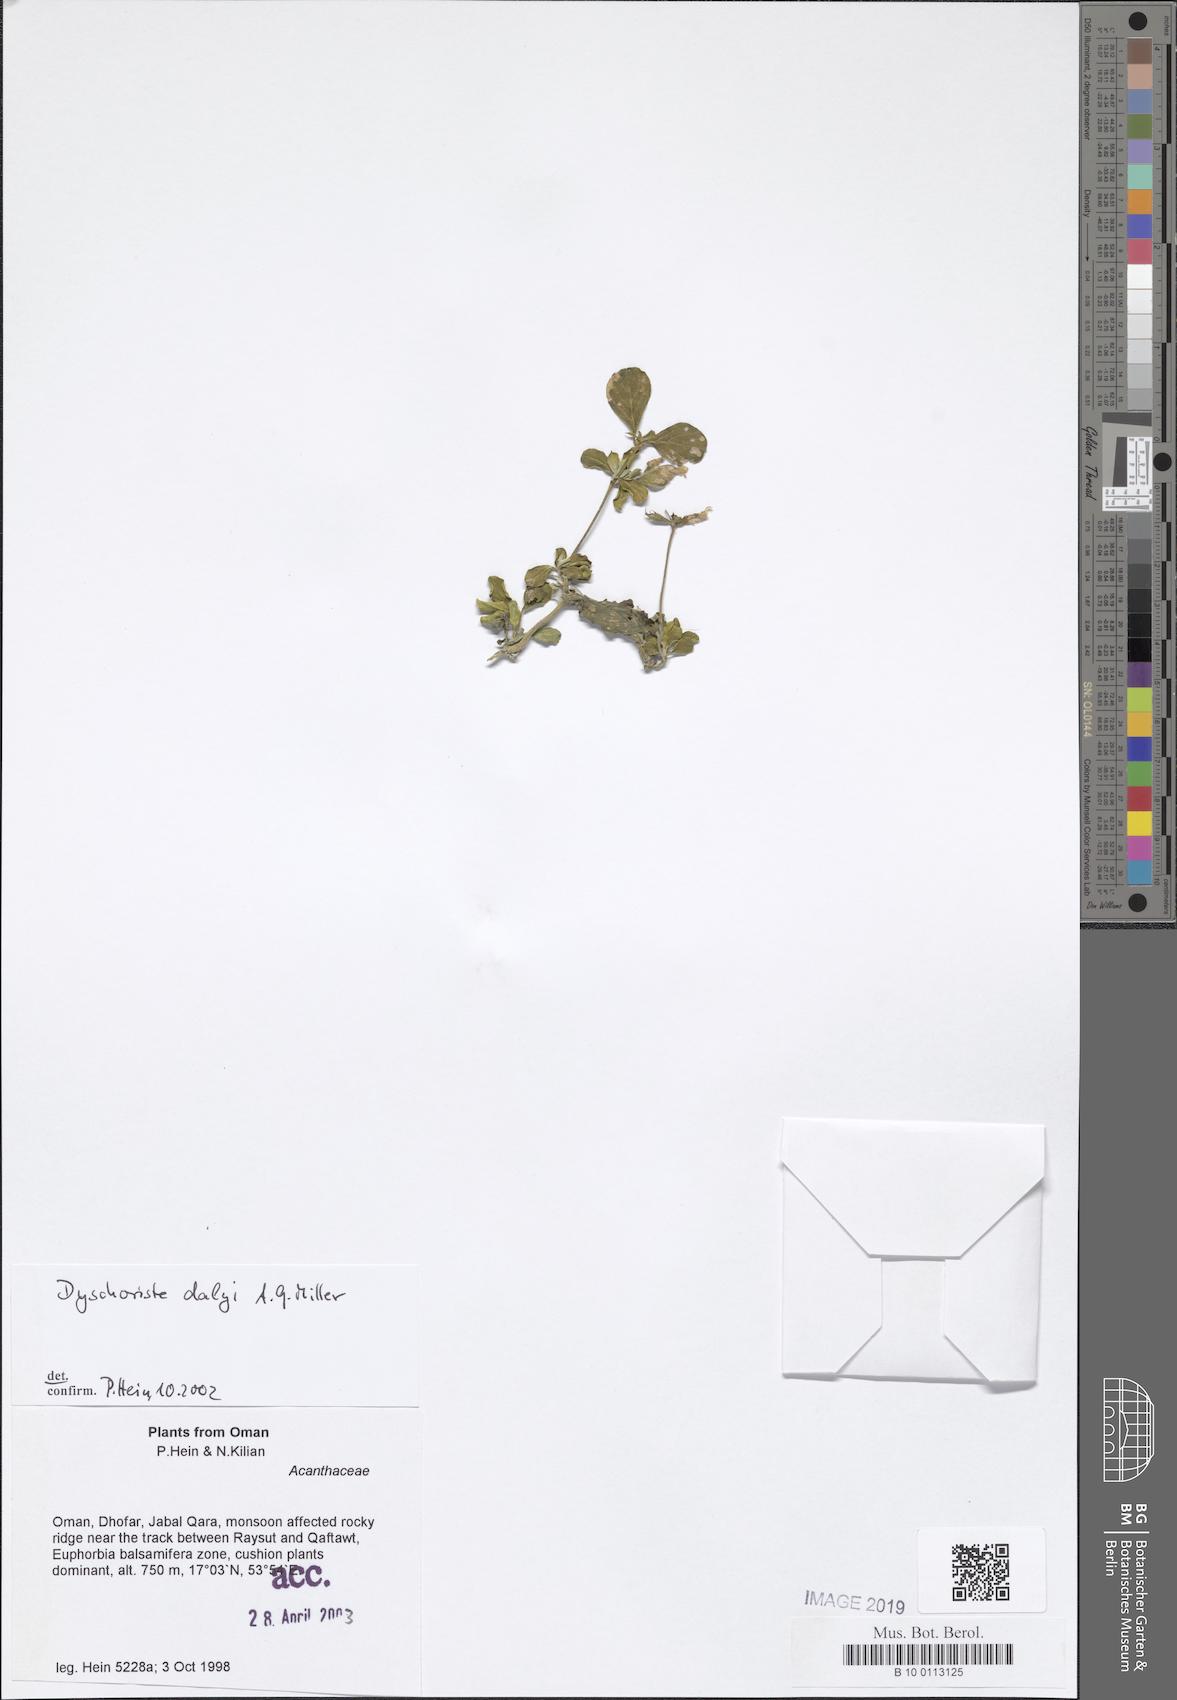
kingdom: Plantae
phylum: Tracheophyta
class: Magnoliopsida
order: Lamiales
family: Acanthaceae
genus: Dyschoriste
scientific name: Dyschoriste dalyi
